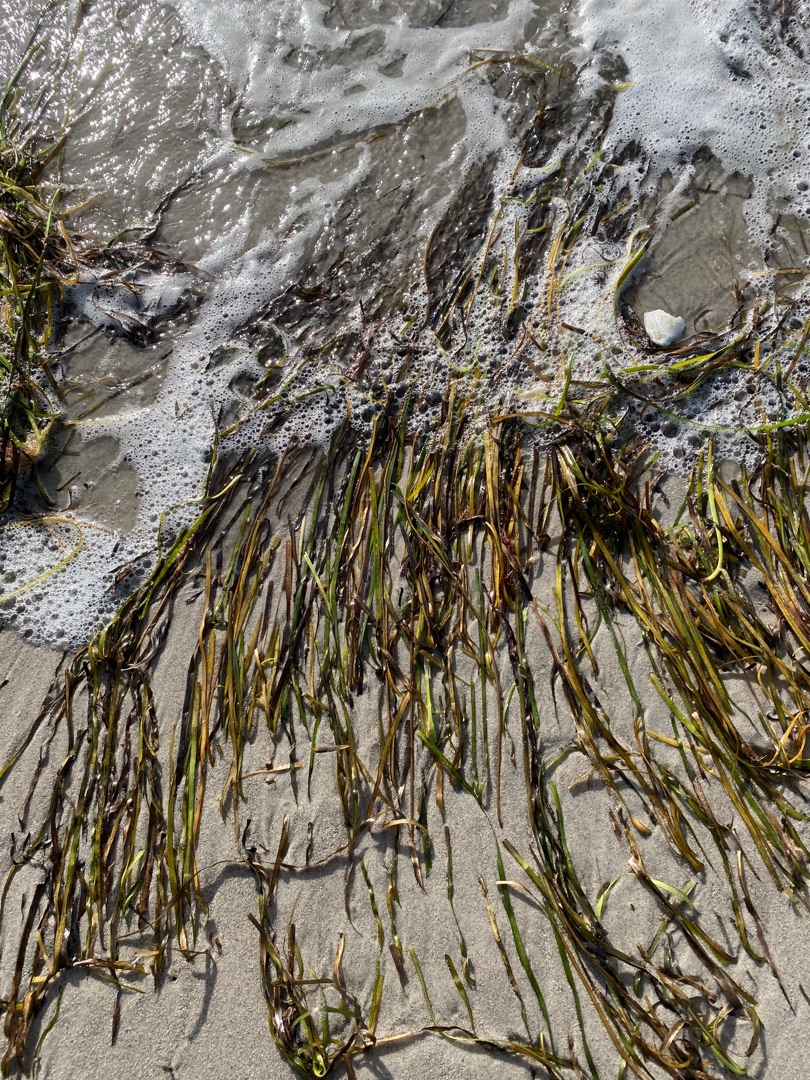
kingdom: Plantae
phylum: Tracheophyta
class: Liliopsida
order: Alismatales
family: Zosteraceae
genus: Zostera
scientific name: Zostera marina
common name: Almindelig bændeltang
